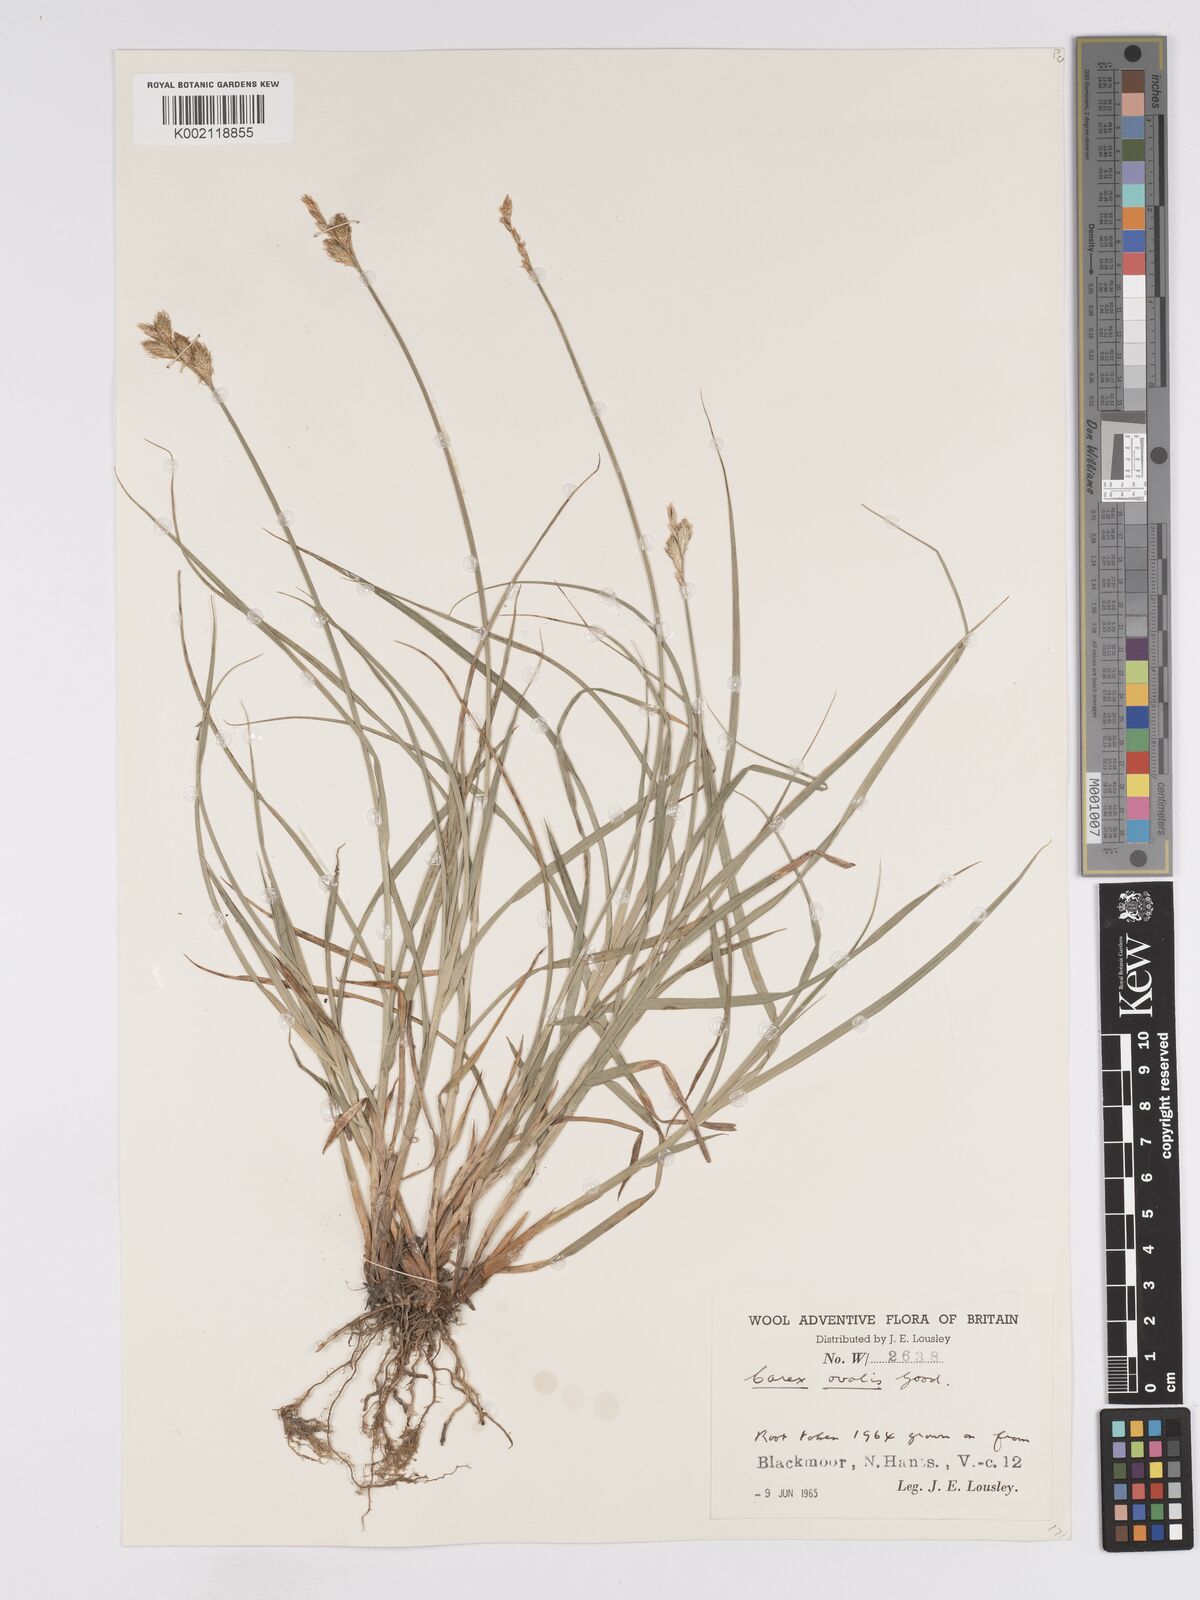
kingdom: Plantae
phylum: Tracheophyta
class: Liliopsida
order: Poales
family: Cyperaceae
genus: Carex
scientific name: Carex leporina
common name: Oval sedge
